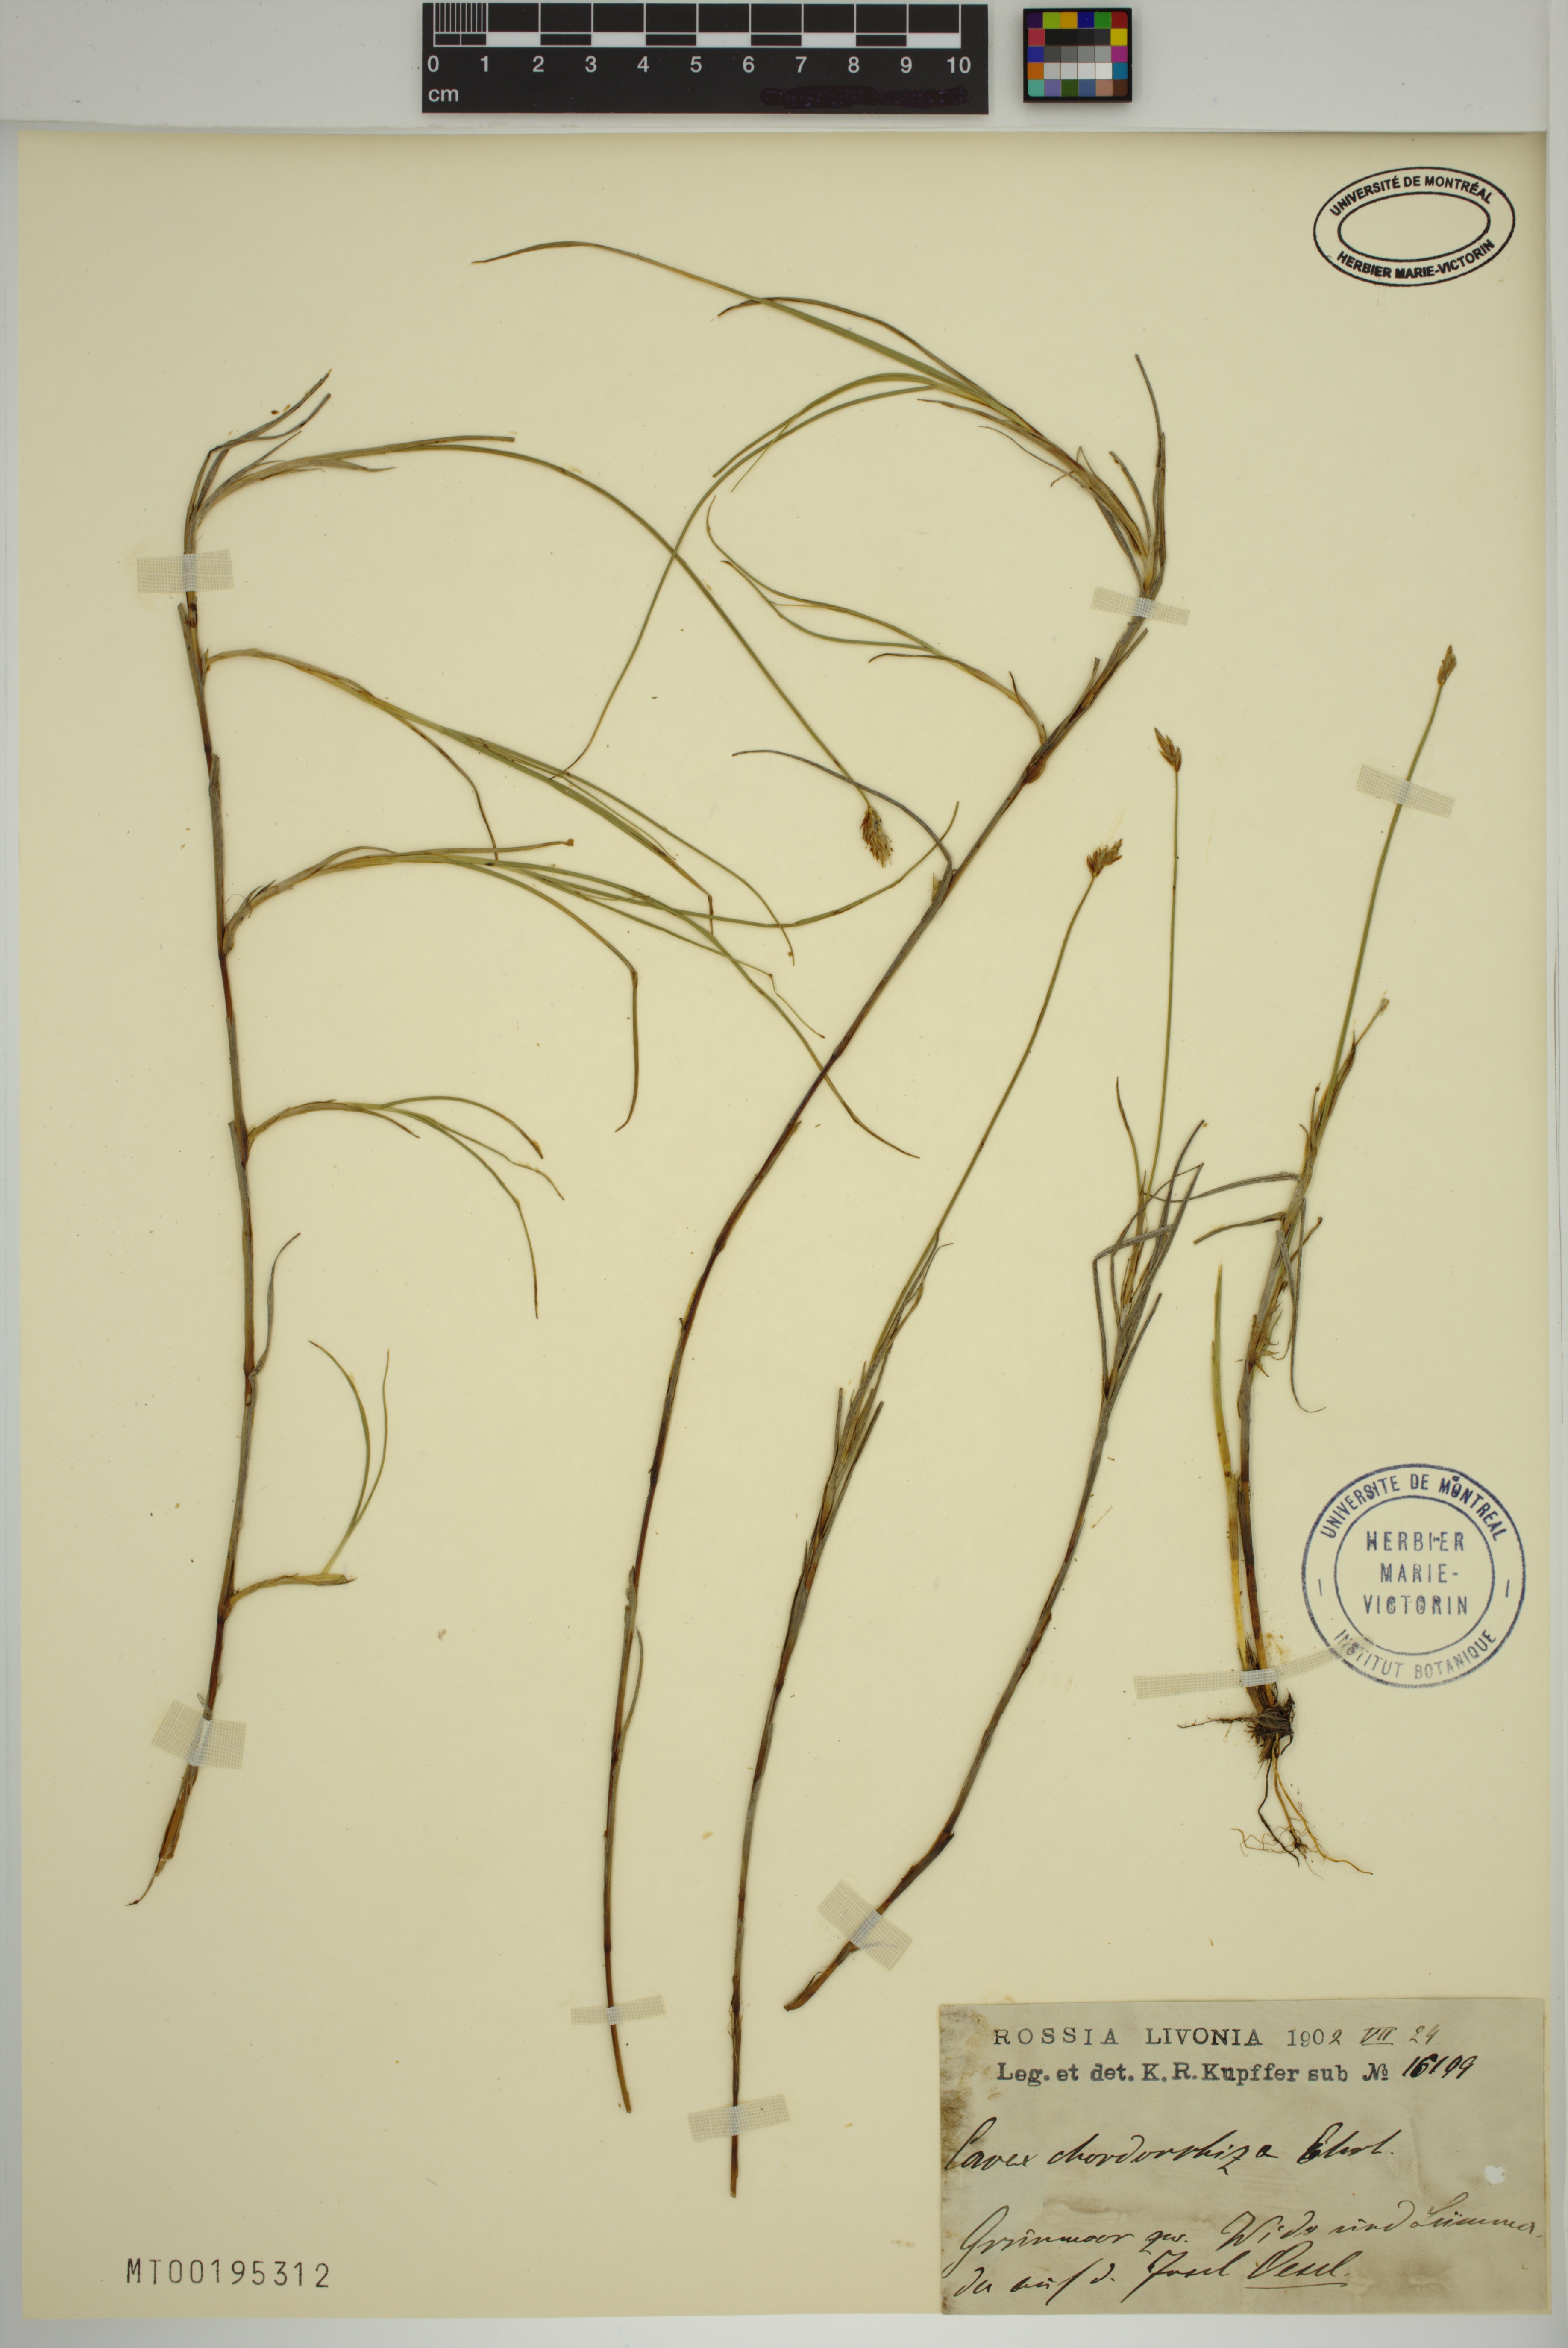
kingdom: Plantae
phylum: Tracheophyta
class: Liliopsida
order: Poales
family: Cyperaceae
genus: Carex
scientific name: Carex chordorrhiza
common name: String sedge
